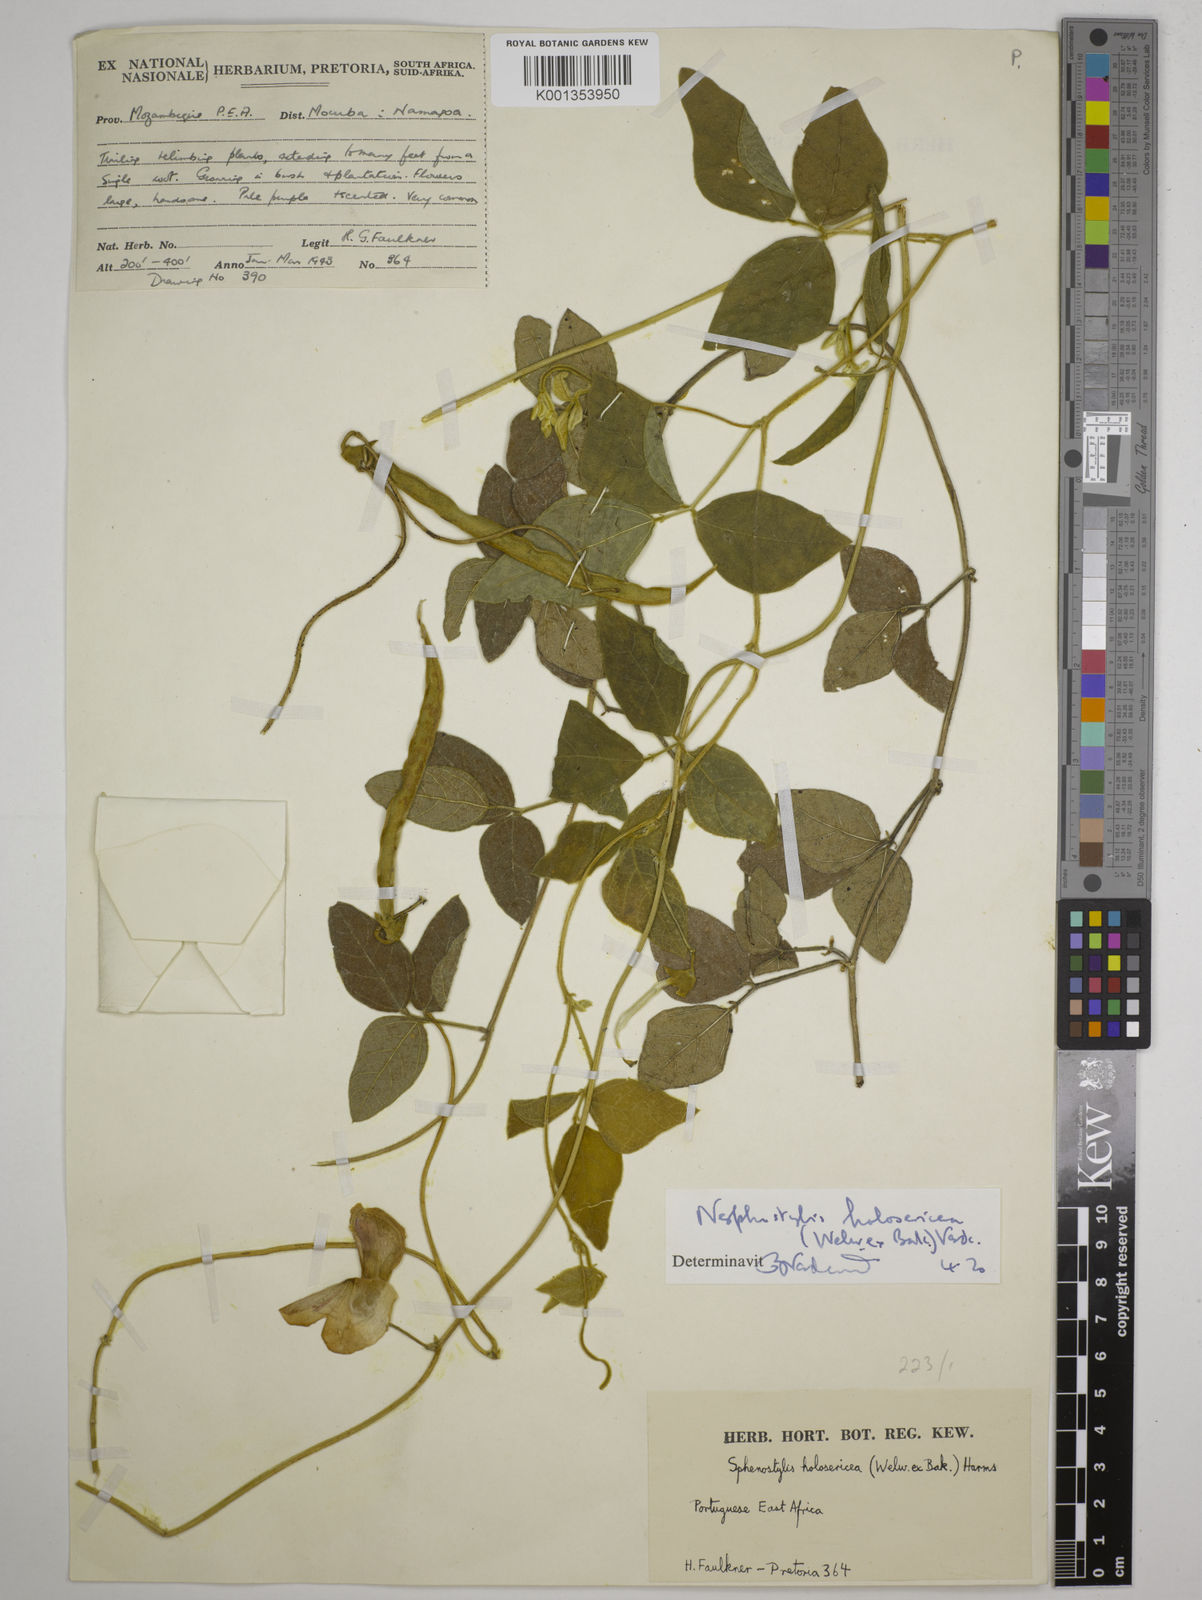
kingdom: Plantae
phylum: Tracheophyta
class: Magnoliopsida
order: Fabales
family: Fabaceae
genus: Nesphostylis
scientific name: Nesphostylis holosericea
